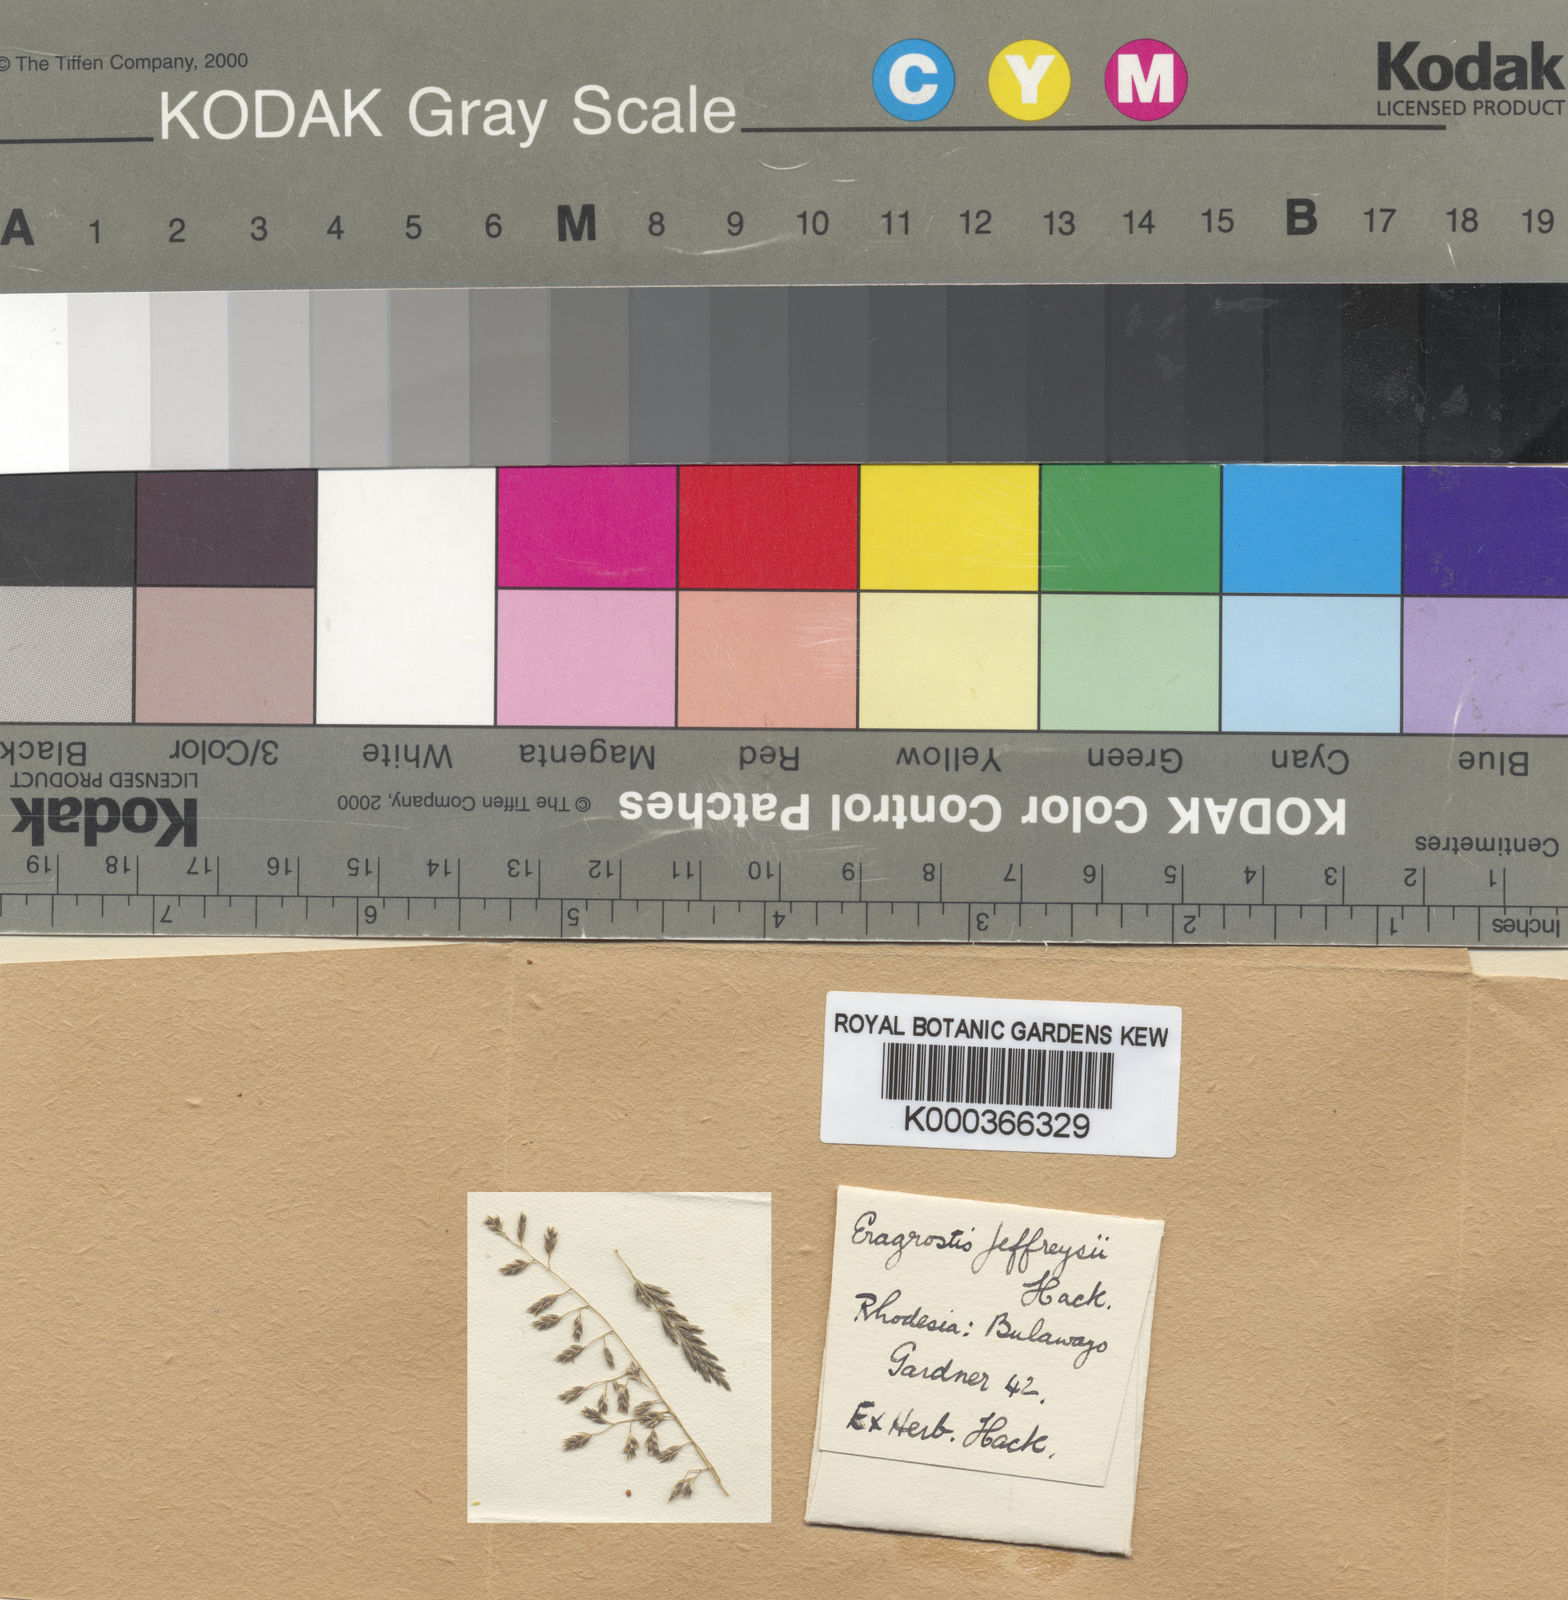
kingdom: Plantae
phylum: Tracheophyta
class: Liliopsida
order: Poales
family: Poaceae
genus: Eragrostis
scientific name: Eragrostis curvula
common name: African love-grass
